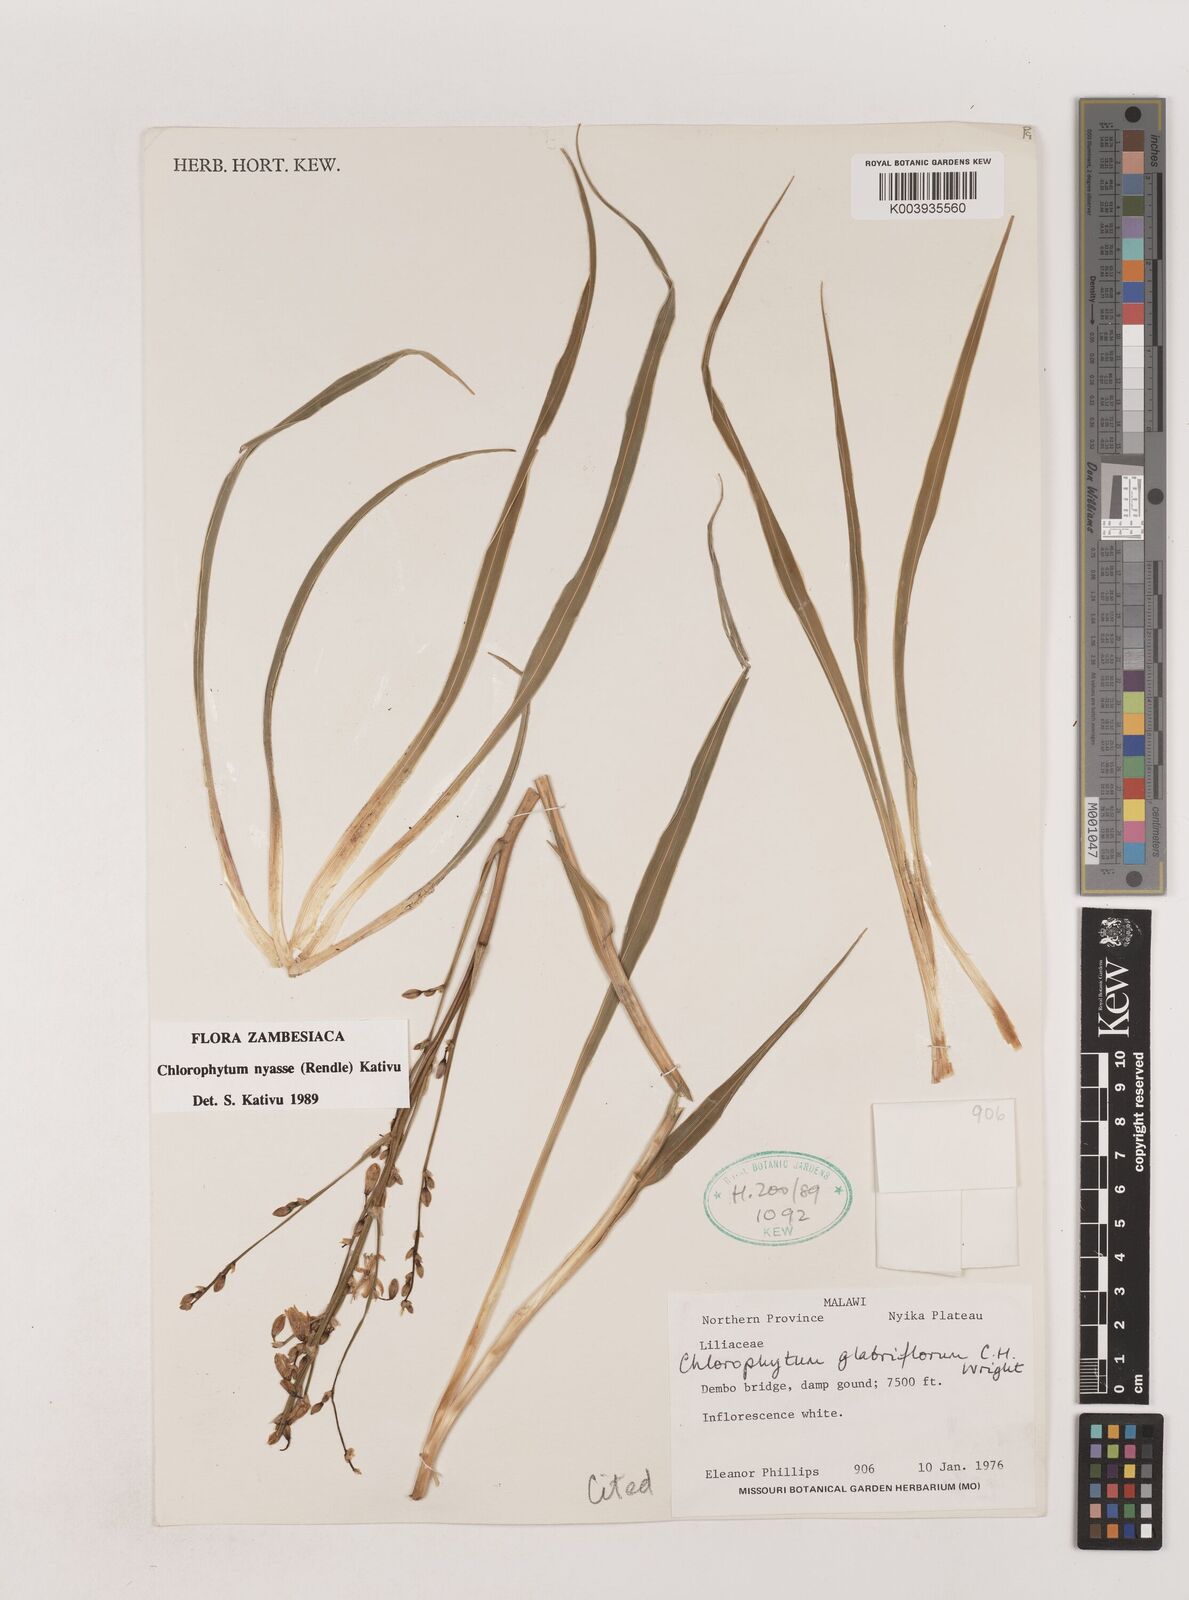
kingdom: Plantae
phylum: Tracheophyta
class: Liliopsida
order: Asparagales
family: Asparagaceae
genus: Chlorophytum
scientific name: Chlorophytum nyasae
